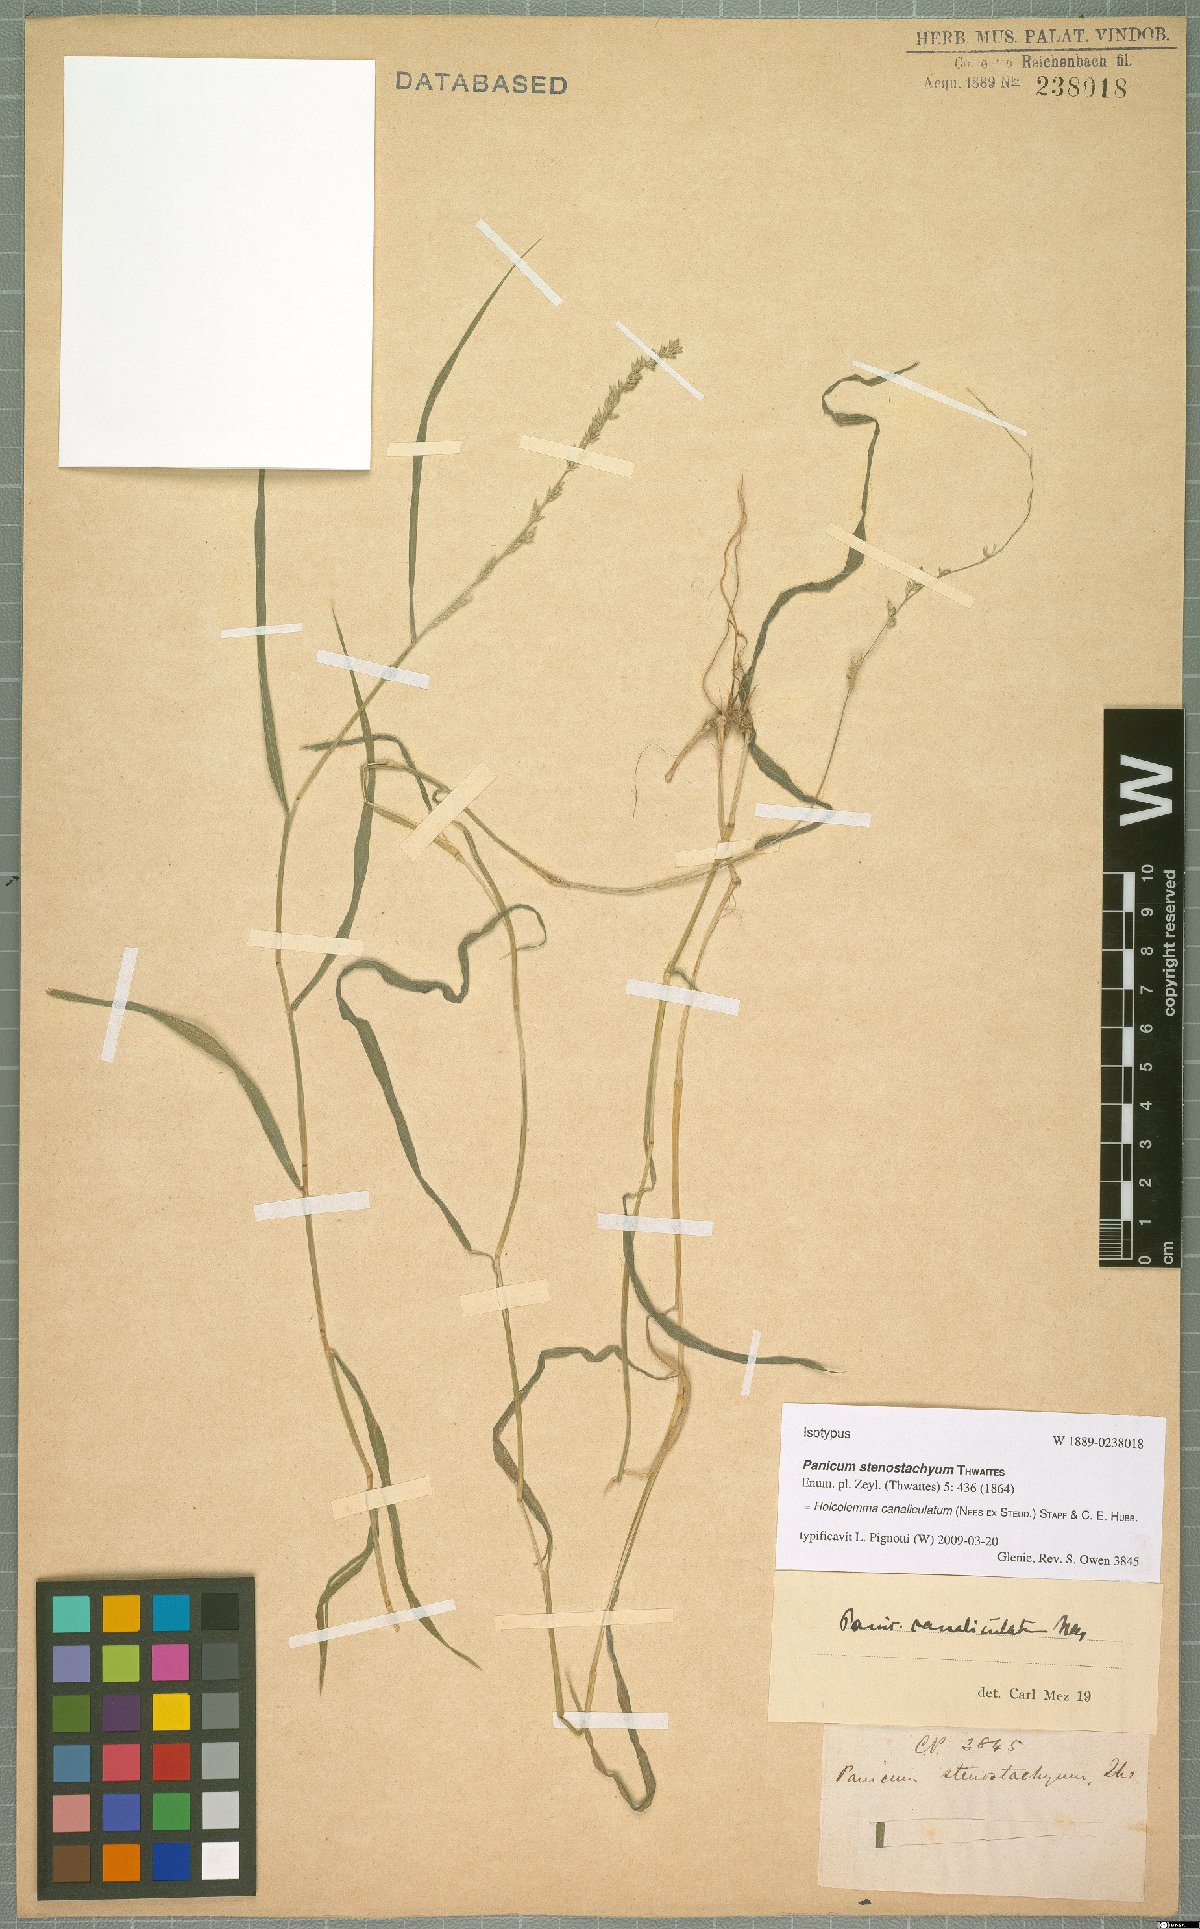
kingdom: Plantae
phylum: Tracheophyta
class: Liliopsida
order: Poales
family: Poaceae
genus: Holcolemma
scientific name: Holcolemma canaliculatum
